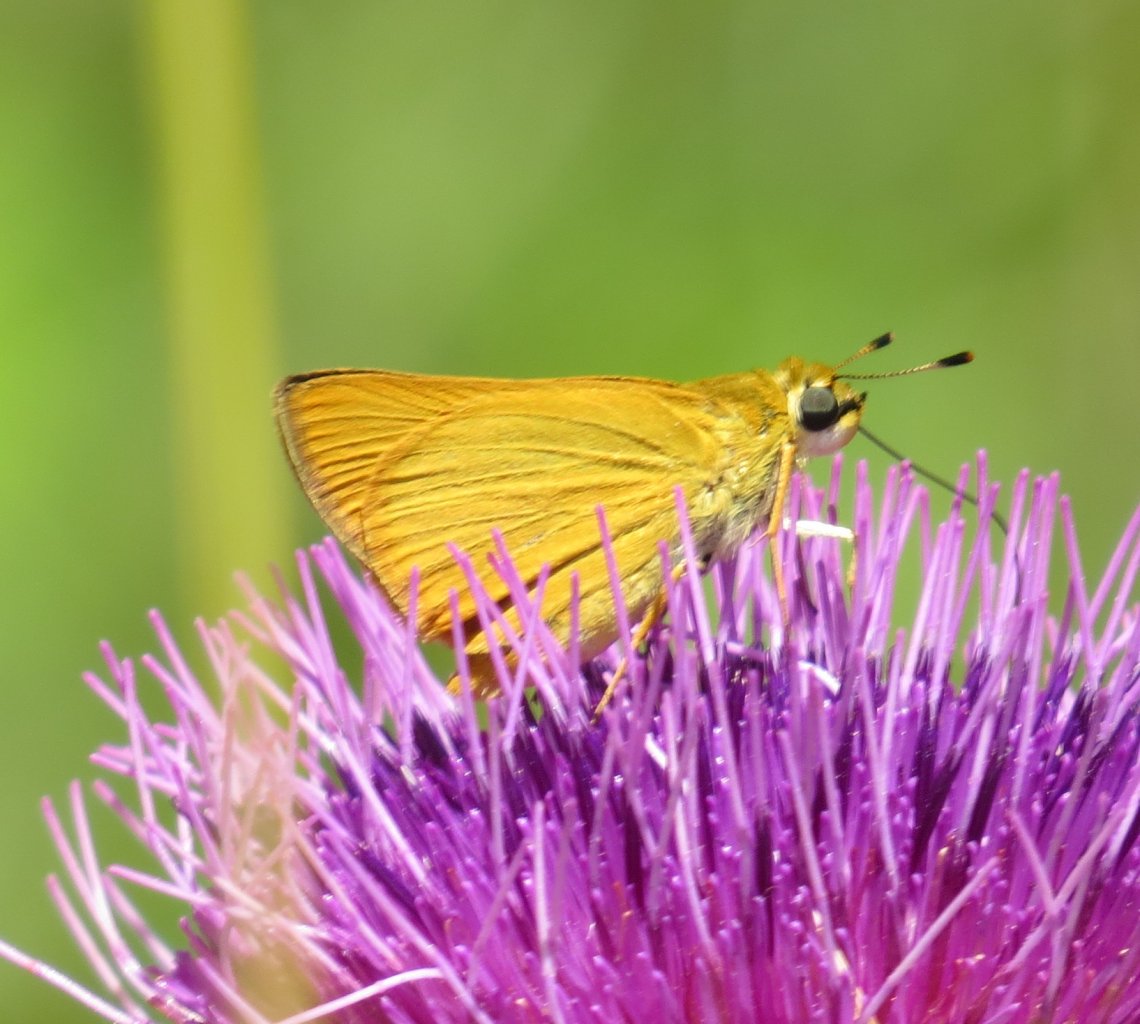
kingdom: Animalia
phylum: Arthropoda
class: Insecta
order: Lepidoptera
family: Hesperiidae
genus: Atrytone
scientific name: Atrytone delaware
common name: Delaware Skipper
